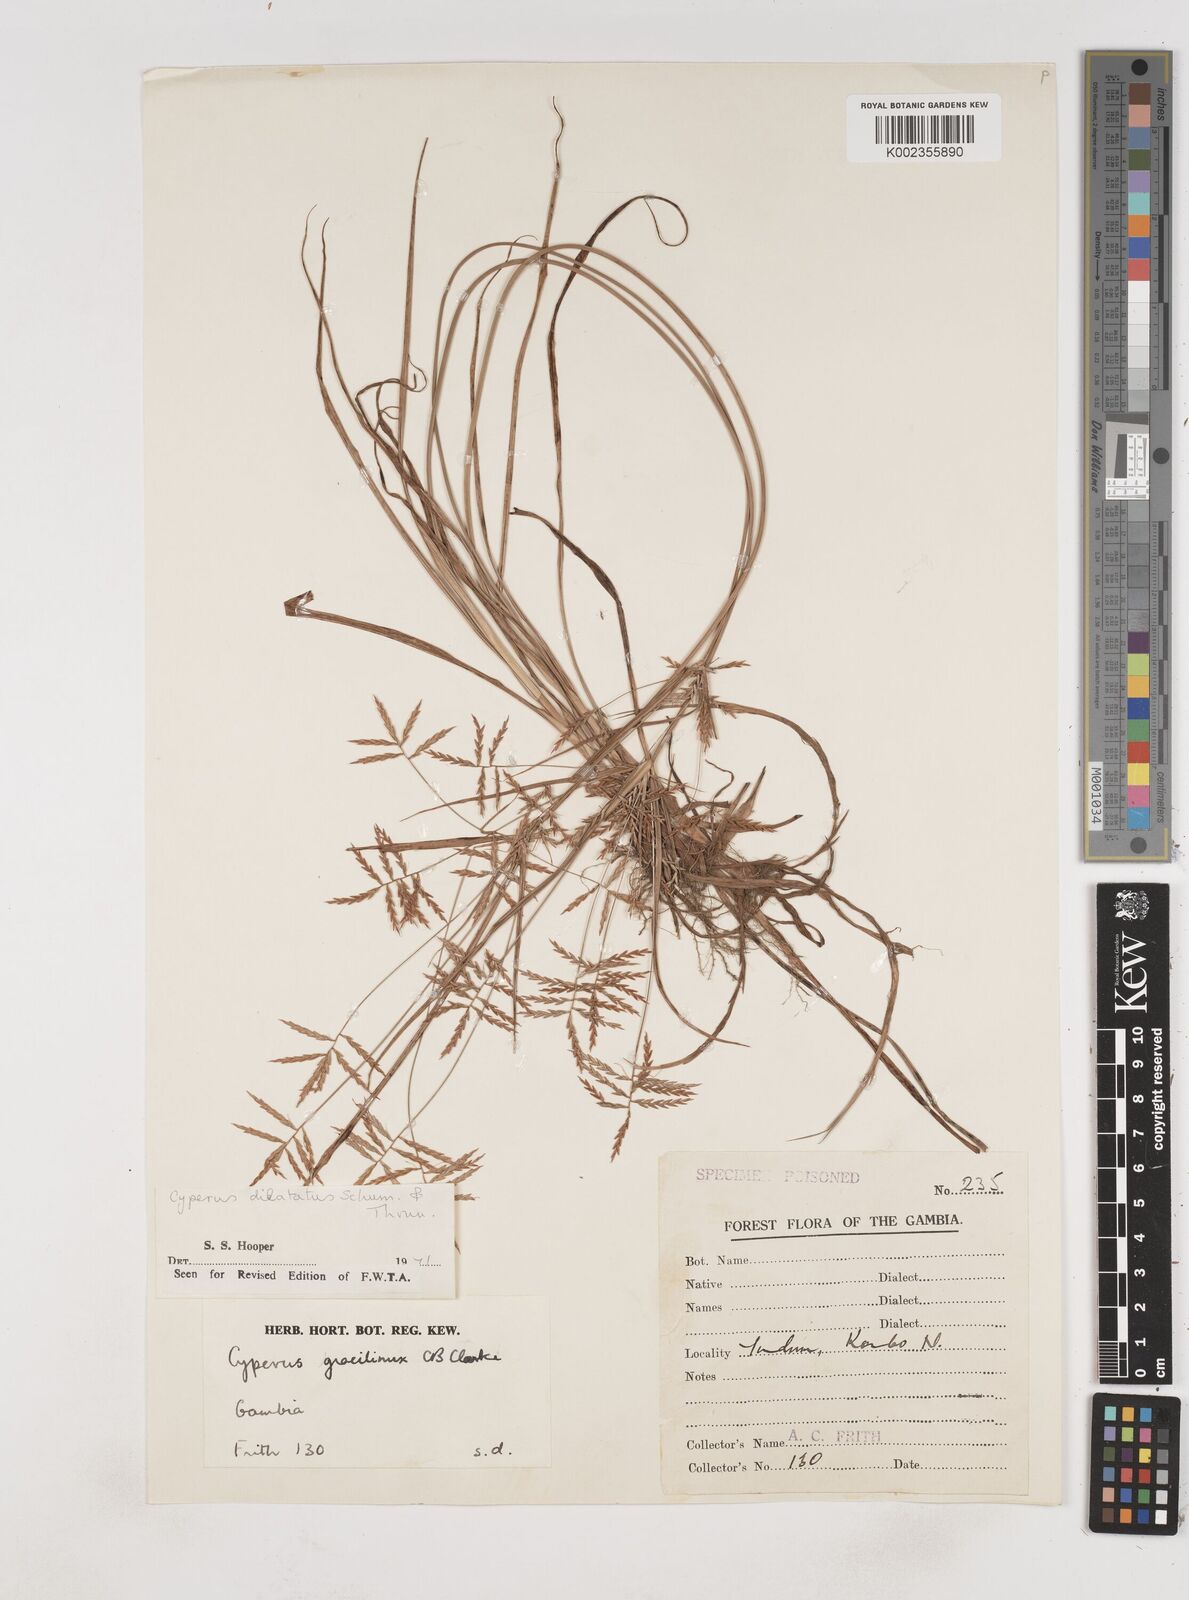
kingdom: Plantae
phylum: Tracheophyta
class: Liliopsida
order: Poales
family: Cyperaceae
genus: Cyperus
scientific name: Cyperus dilatatus
